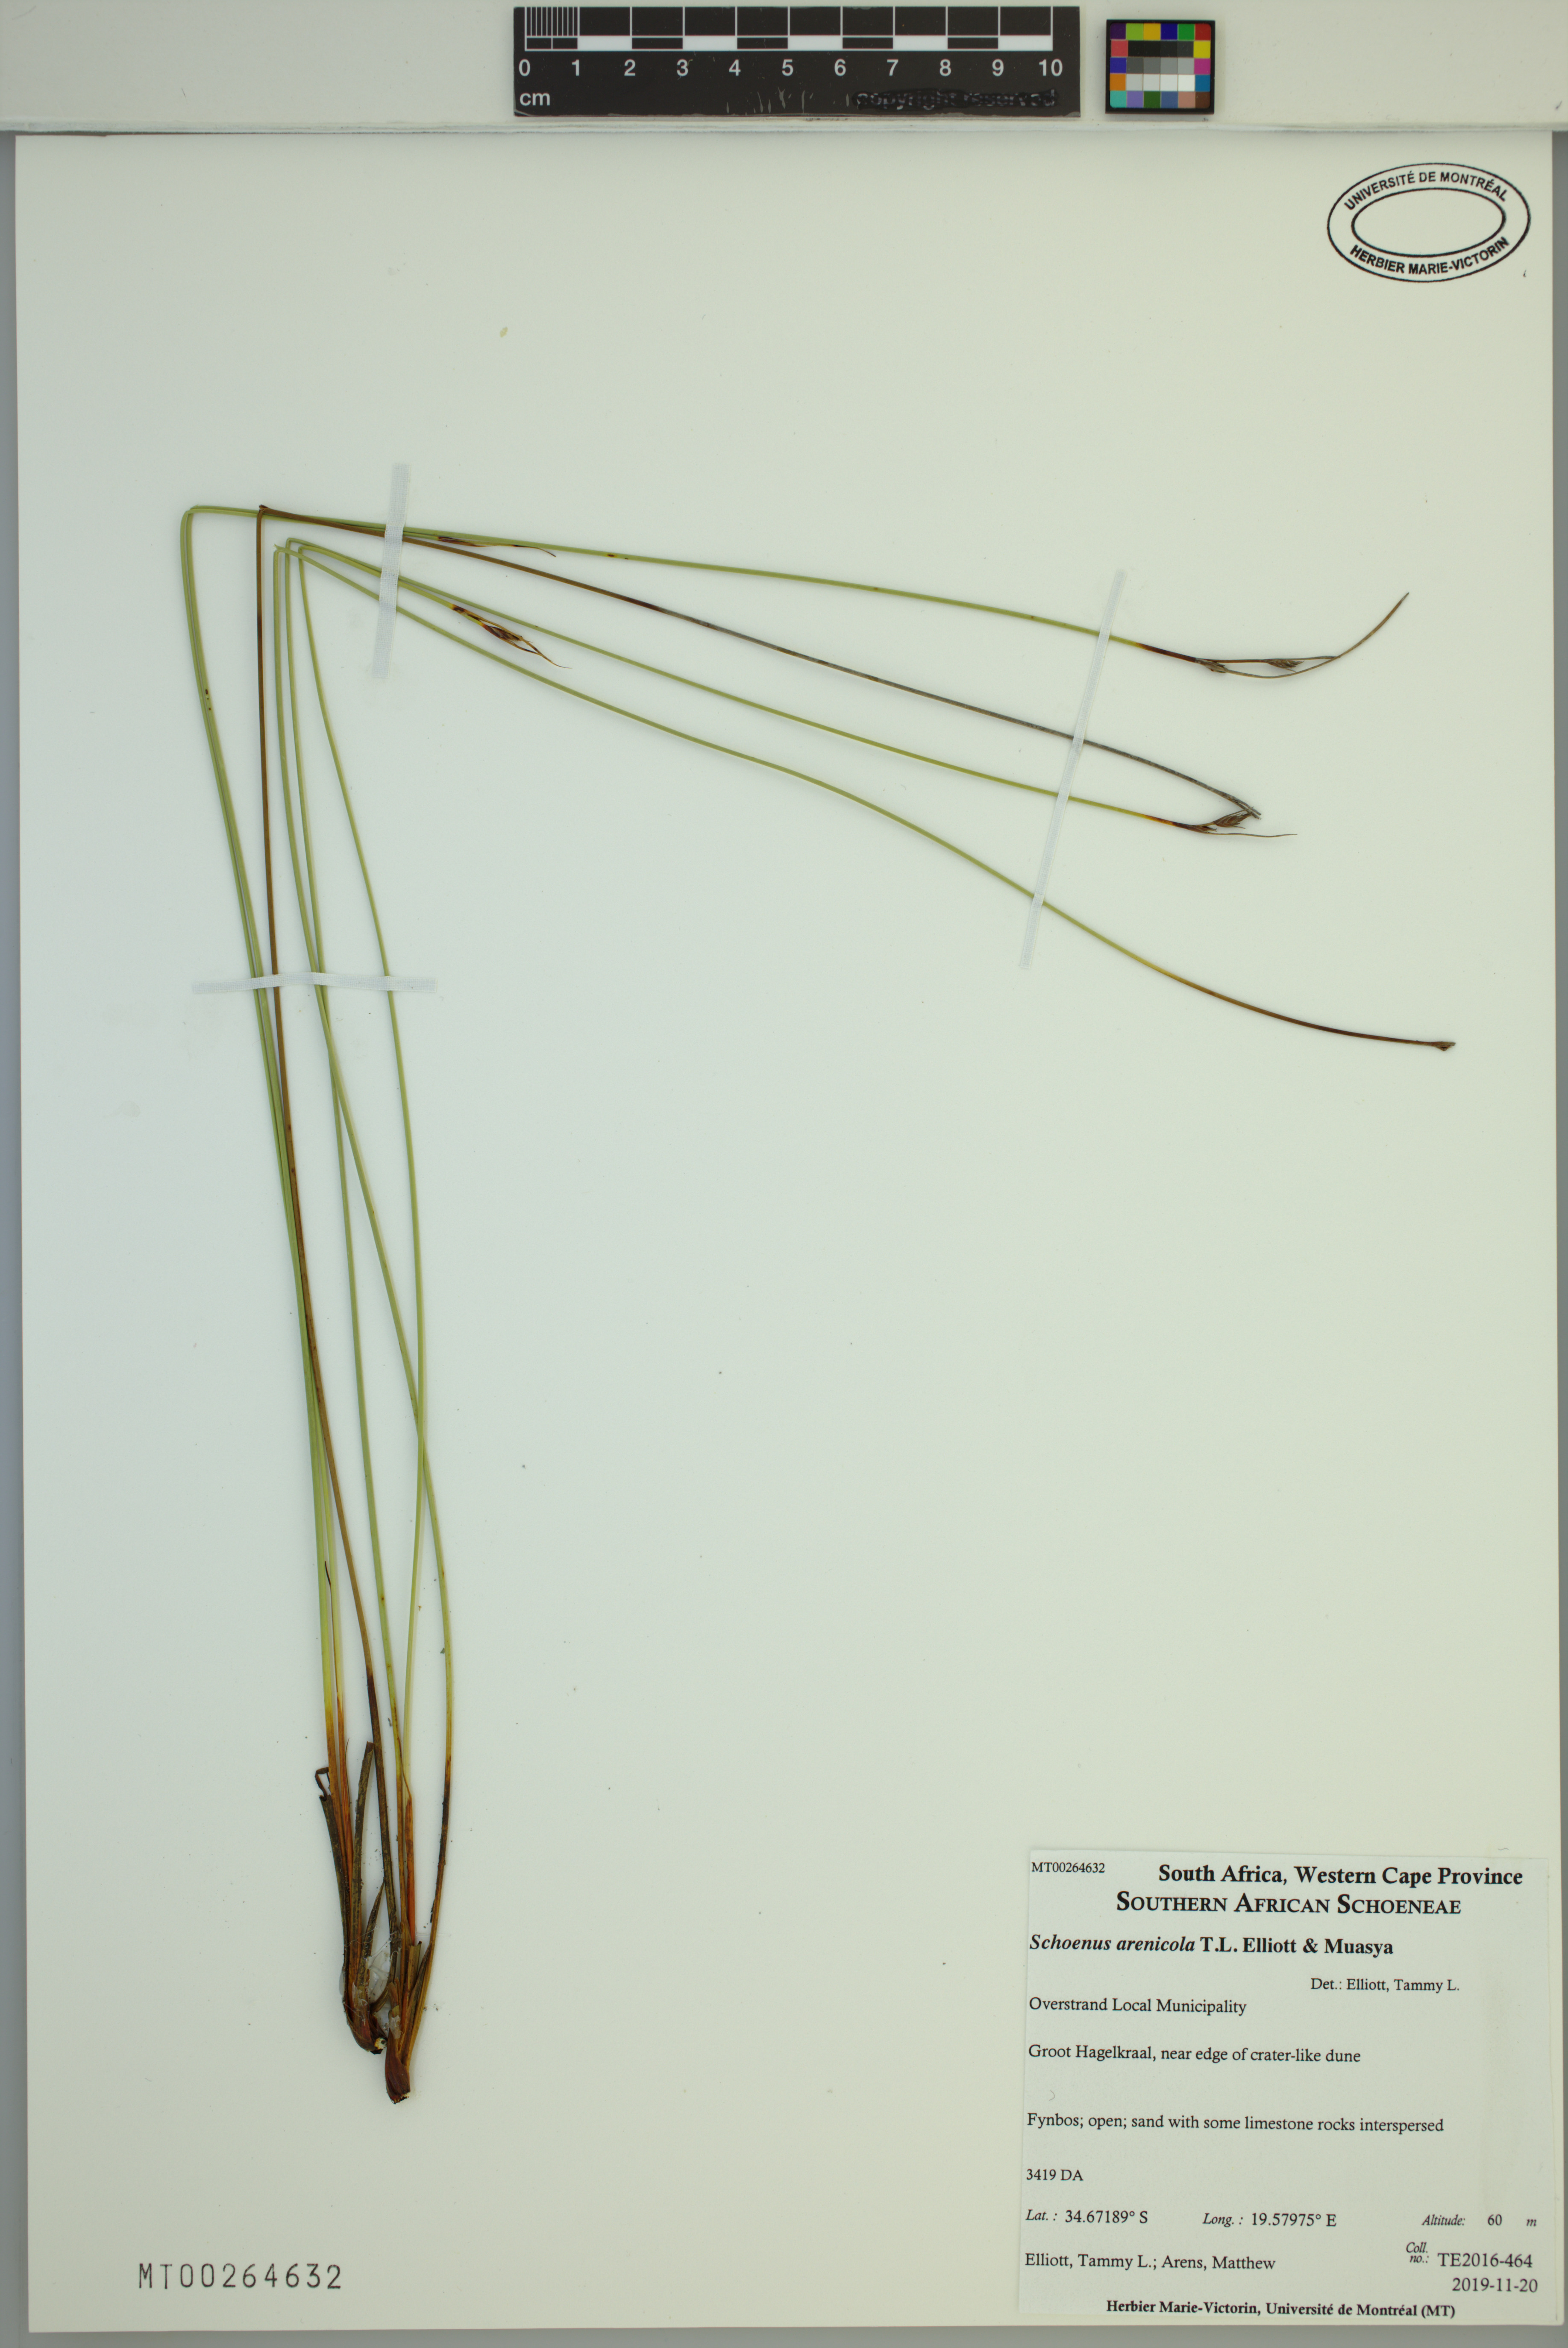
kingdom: Plantae
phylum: Tracheophyta
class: Liliopsida
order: Poales
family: Cyperaceae
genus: Schoenus
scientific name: Schoenus arenicola
